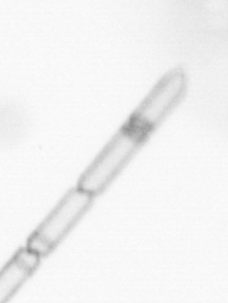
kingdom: Chromista
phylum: Ochrophyta
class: Bacillariophyceae
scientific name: Bacillariophyceae
